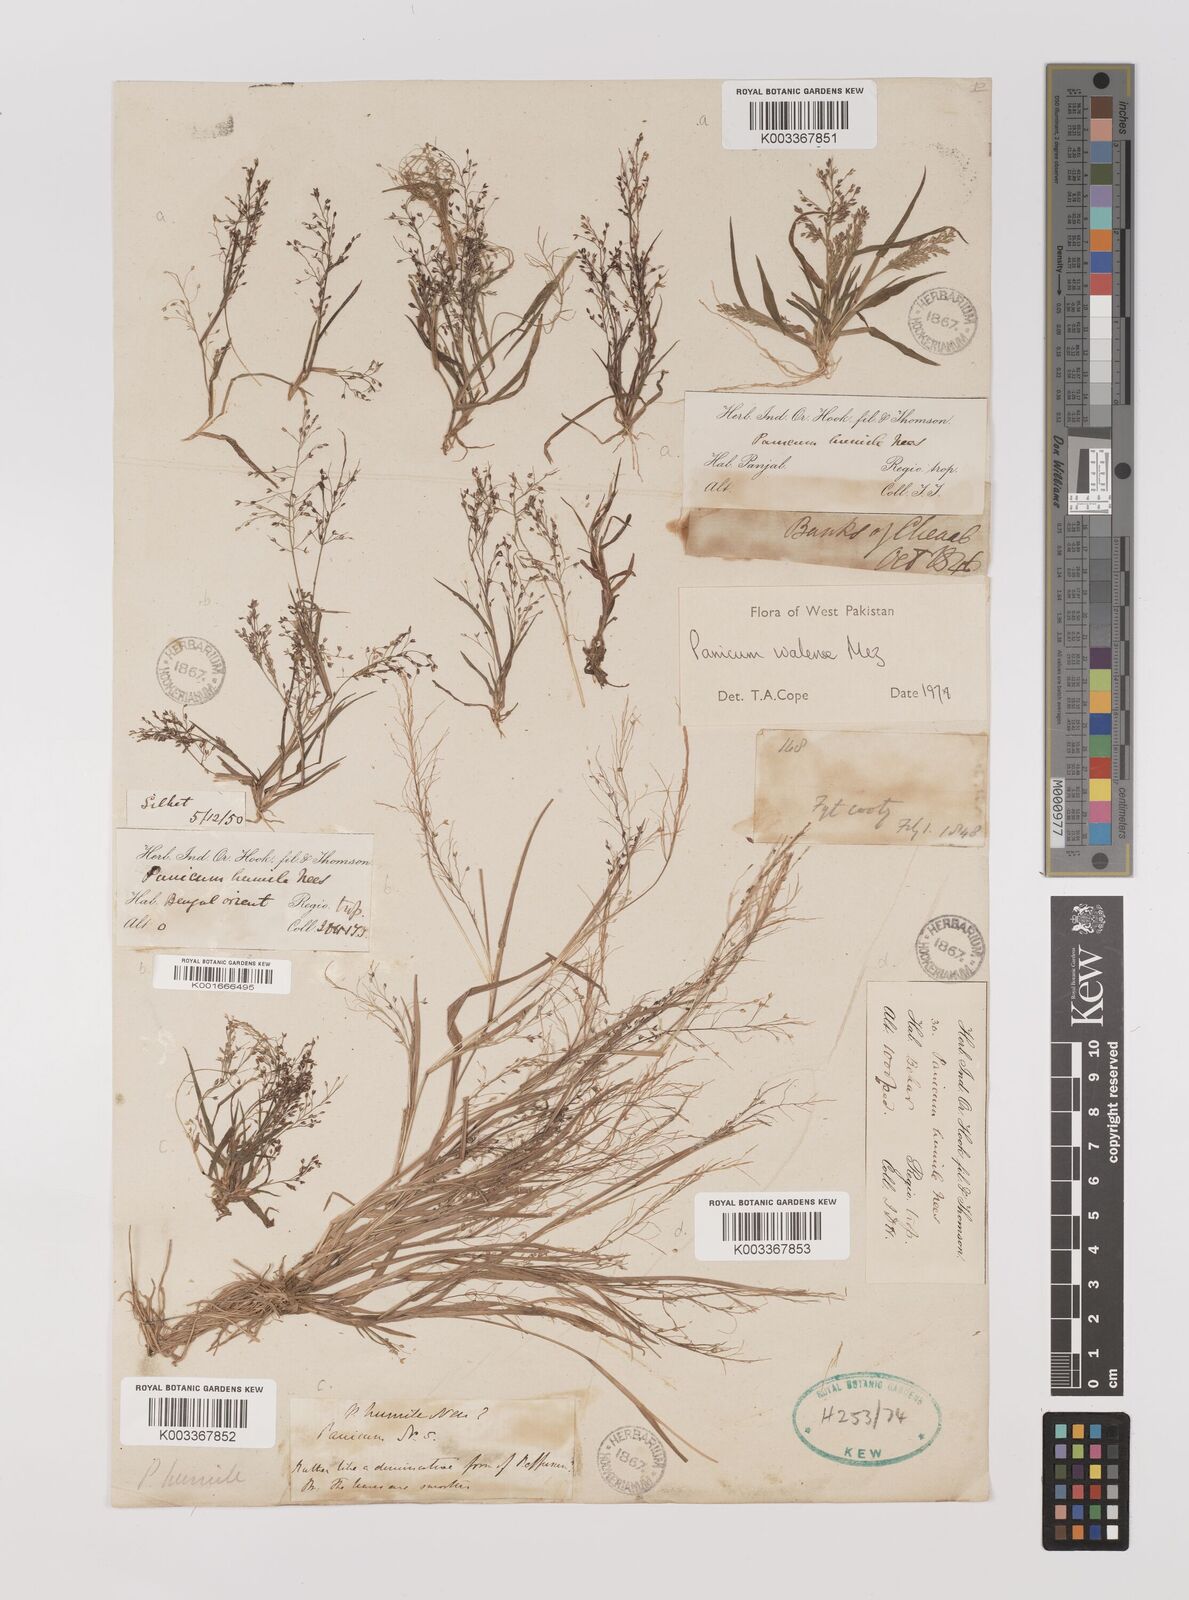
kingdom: Plantae
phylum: Tracheophyta
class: Liliopsida
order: Poales
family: Poaceae
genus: Panicum
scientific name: Panicum humile
